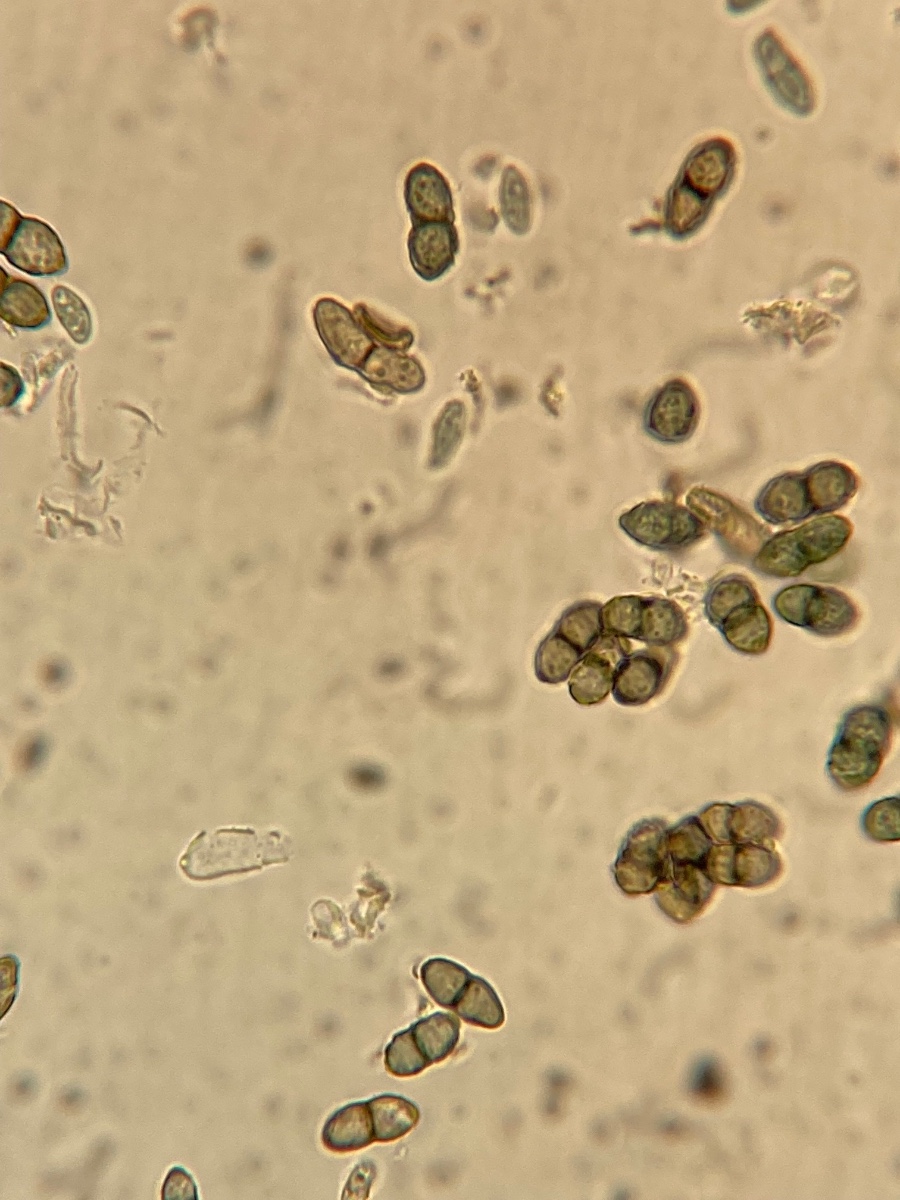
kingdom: Fungi
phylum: Ascomycota
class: Lecanoromycetes
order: Caliciales
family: Caliciaceae
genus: Calicium
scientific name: Calicium viride
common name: gulgrøn nålelav
